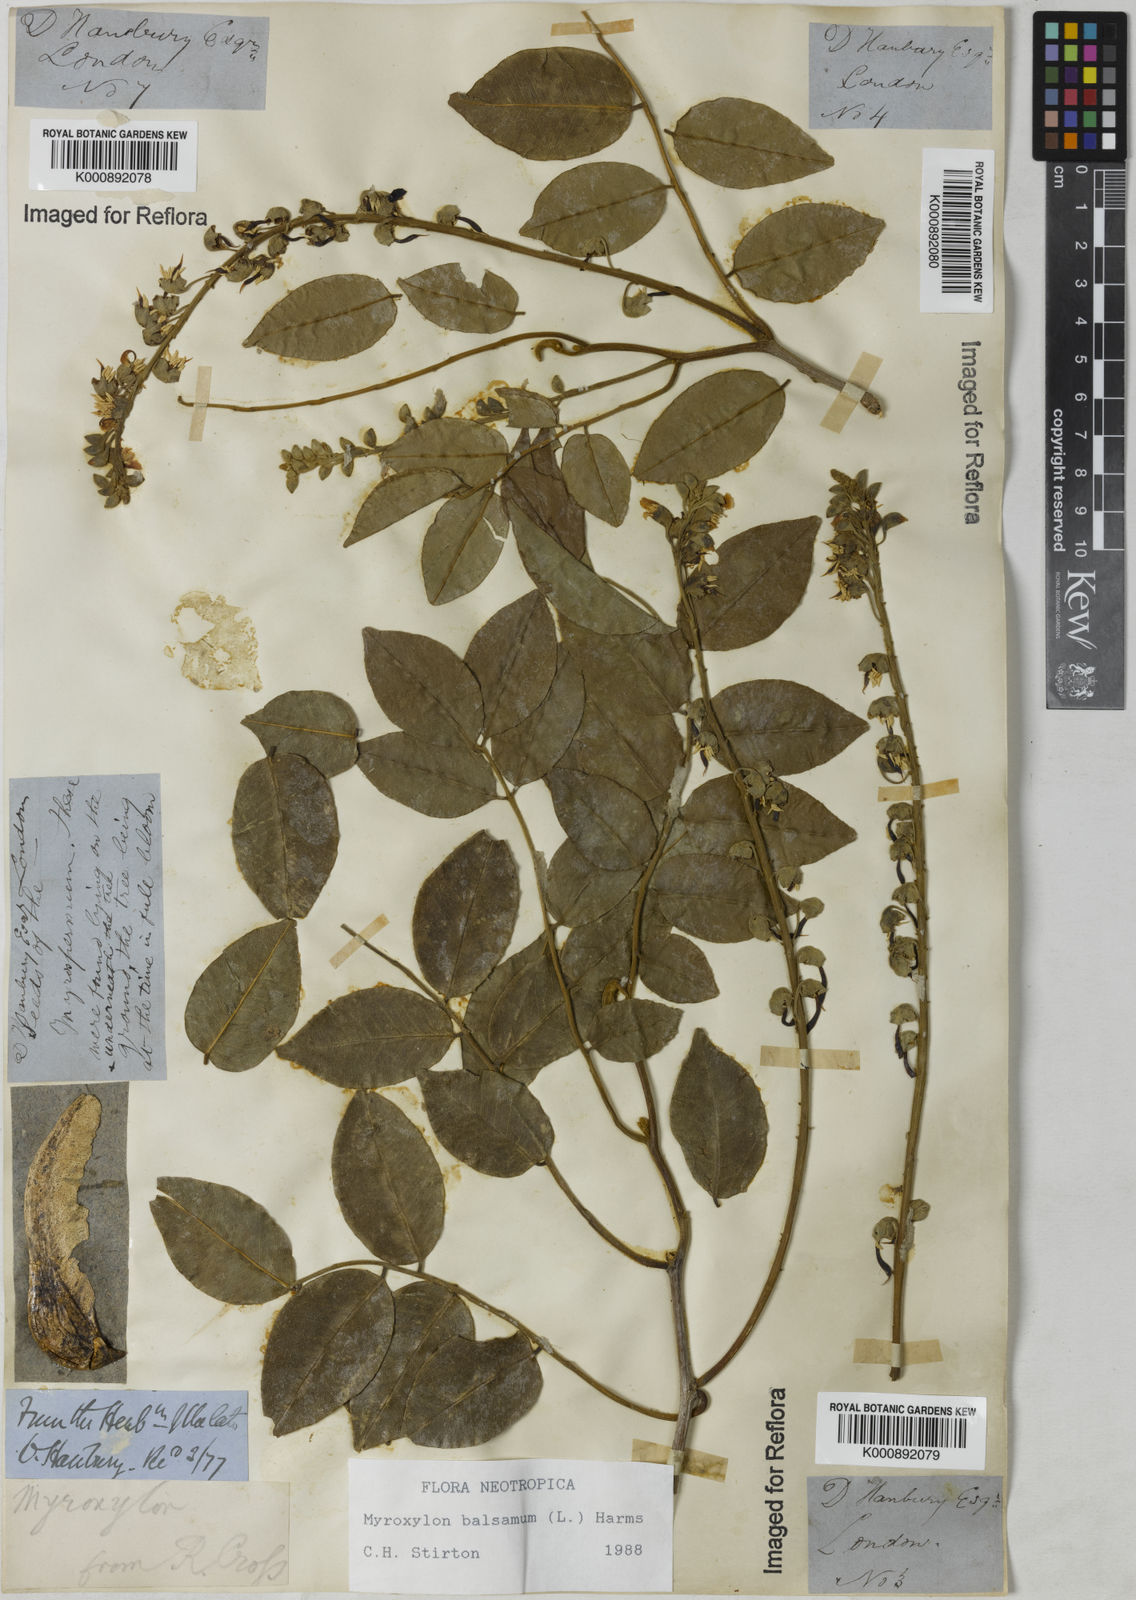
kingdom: Plantae
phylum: Tracheophyta
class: Magnoliopsida
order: Fabales
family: Fabaceae
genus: Myroxylon
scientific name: Myroxylon balsamum
